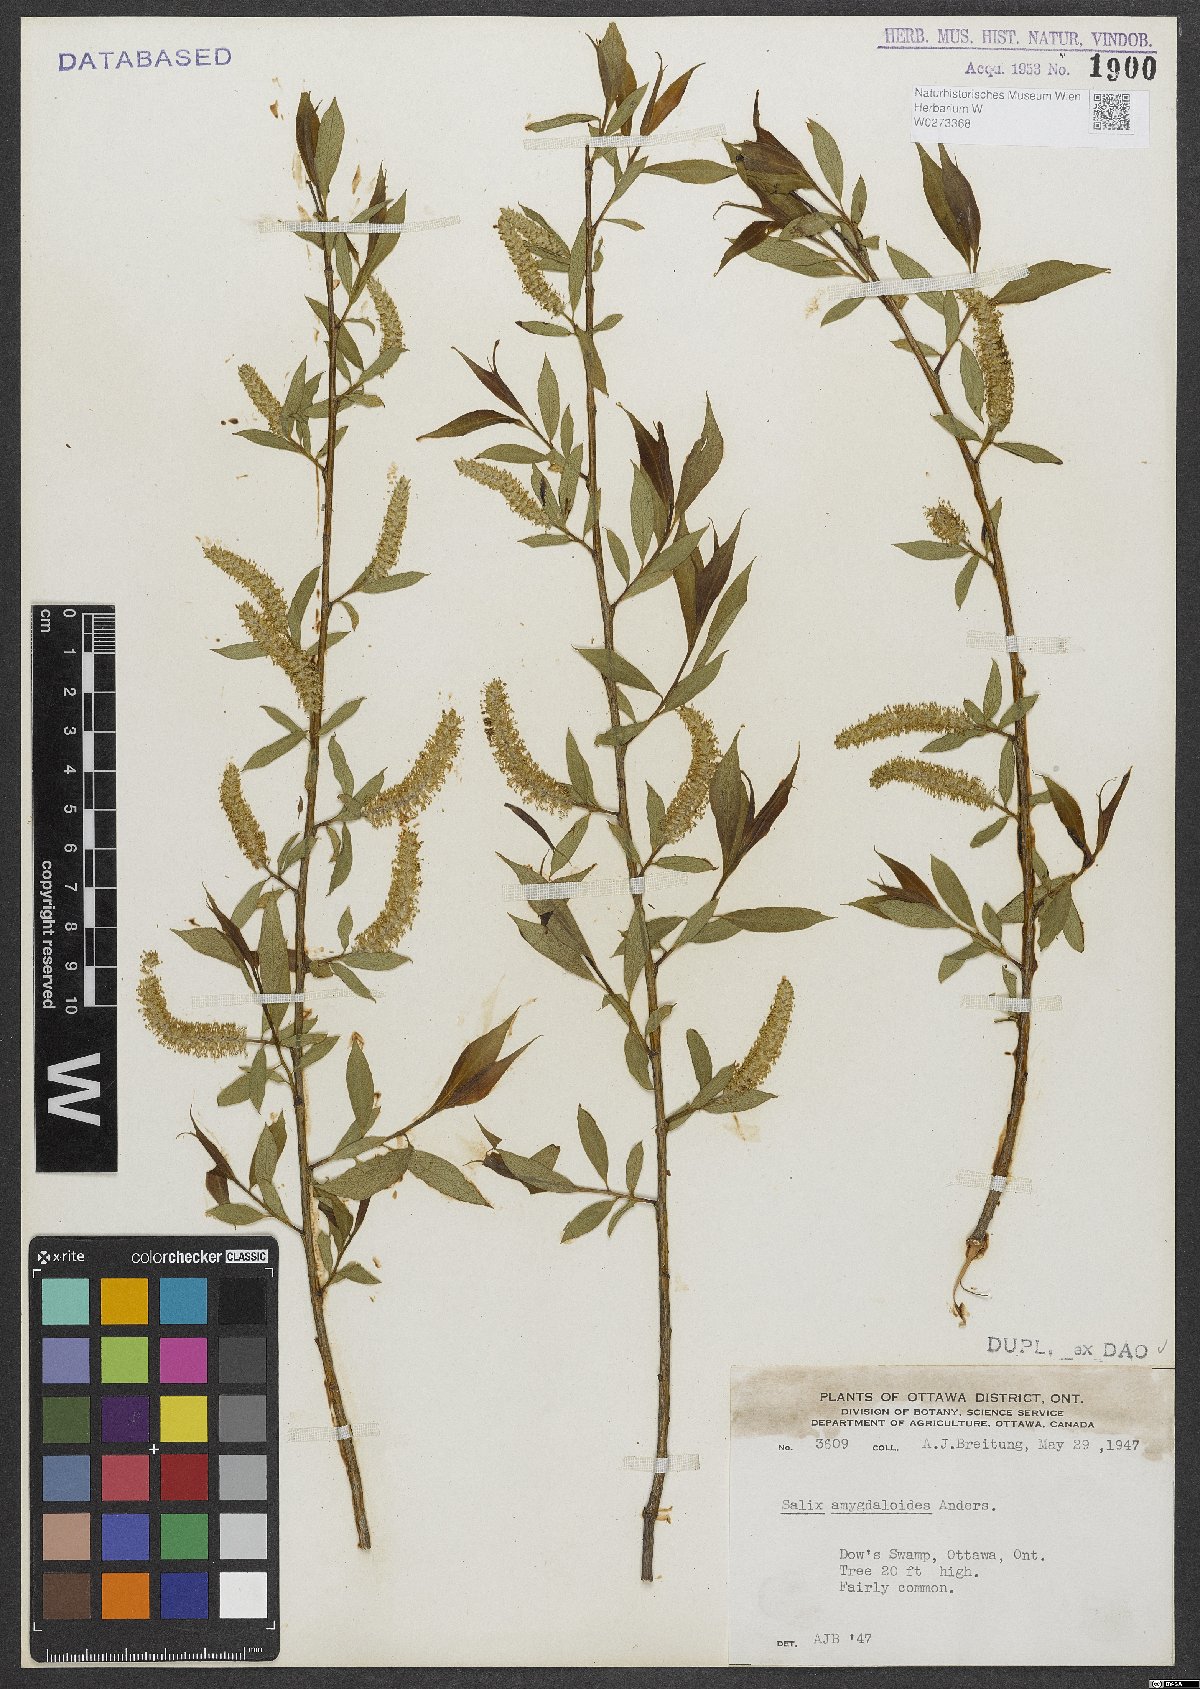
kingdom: Plantae
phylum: Tracheophyta
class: Magnoliopsida
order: Malpighiales
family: Salicaceae
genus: Salix
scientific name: Salix amygdaloides
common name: Peach leaf willow
